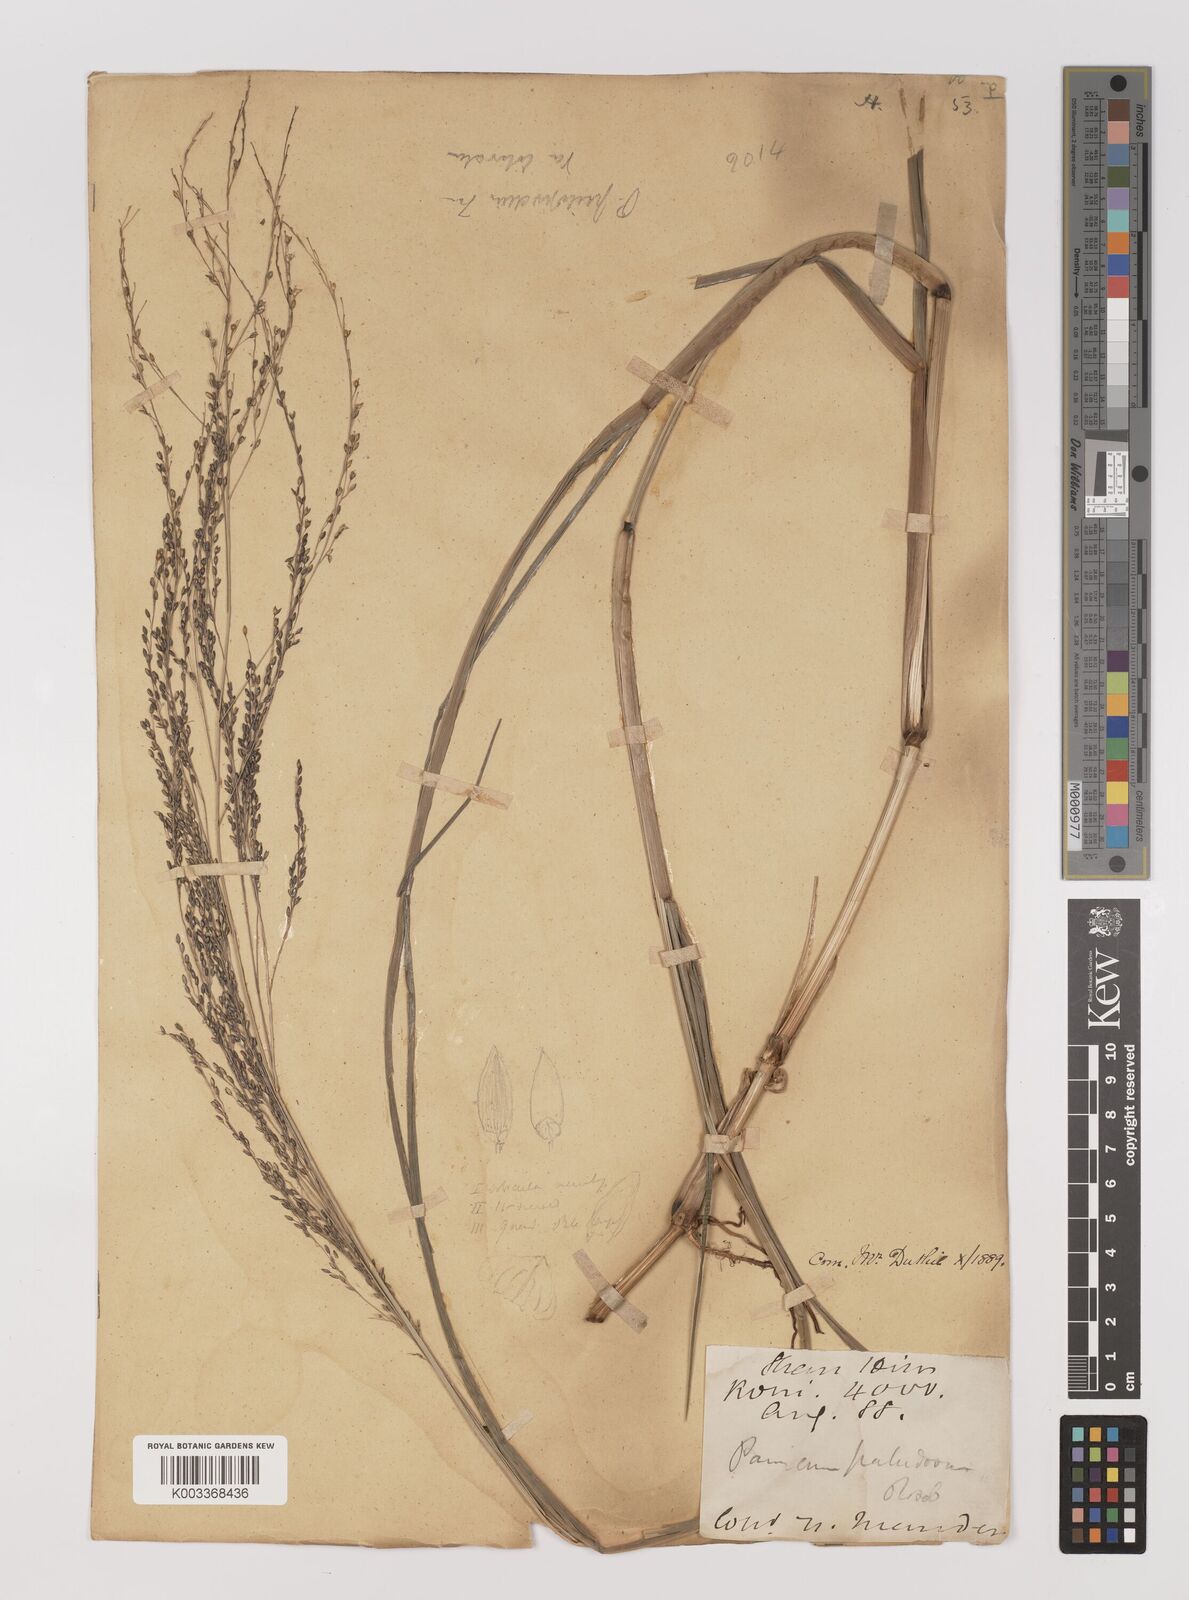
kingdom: Plantae
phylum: Tracheophyta
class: Liliopsida
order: Poales
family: Poaceae
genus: Panicum
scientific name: Panicum sumatrense
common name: Little millet
